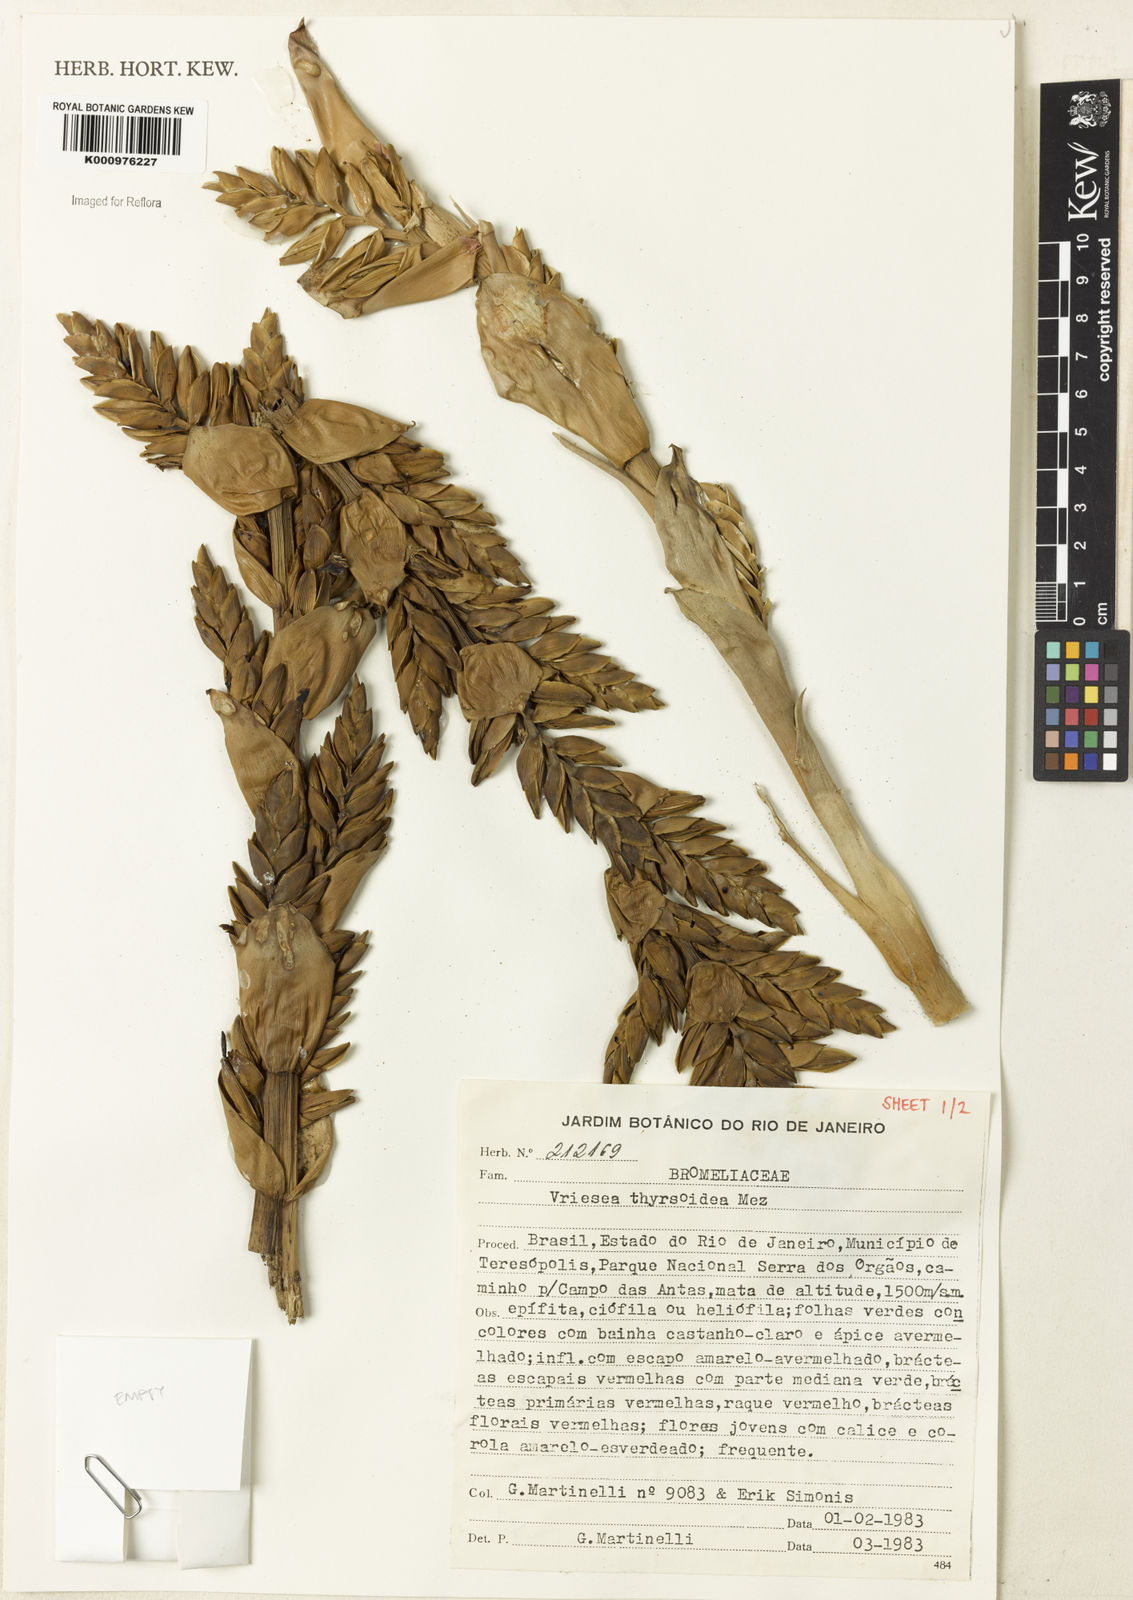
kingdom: Plantae
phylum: Tracheophyta
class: Liliopsida
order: Poales
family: Bromeliaceae
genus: Vriesea
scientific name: Vriesea thyrsoidea
